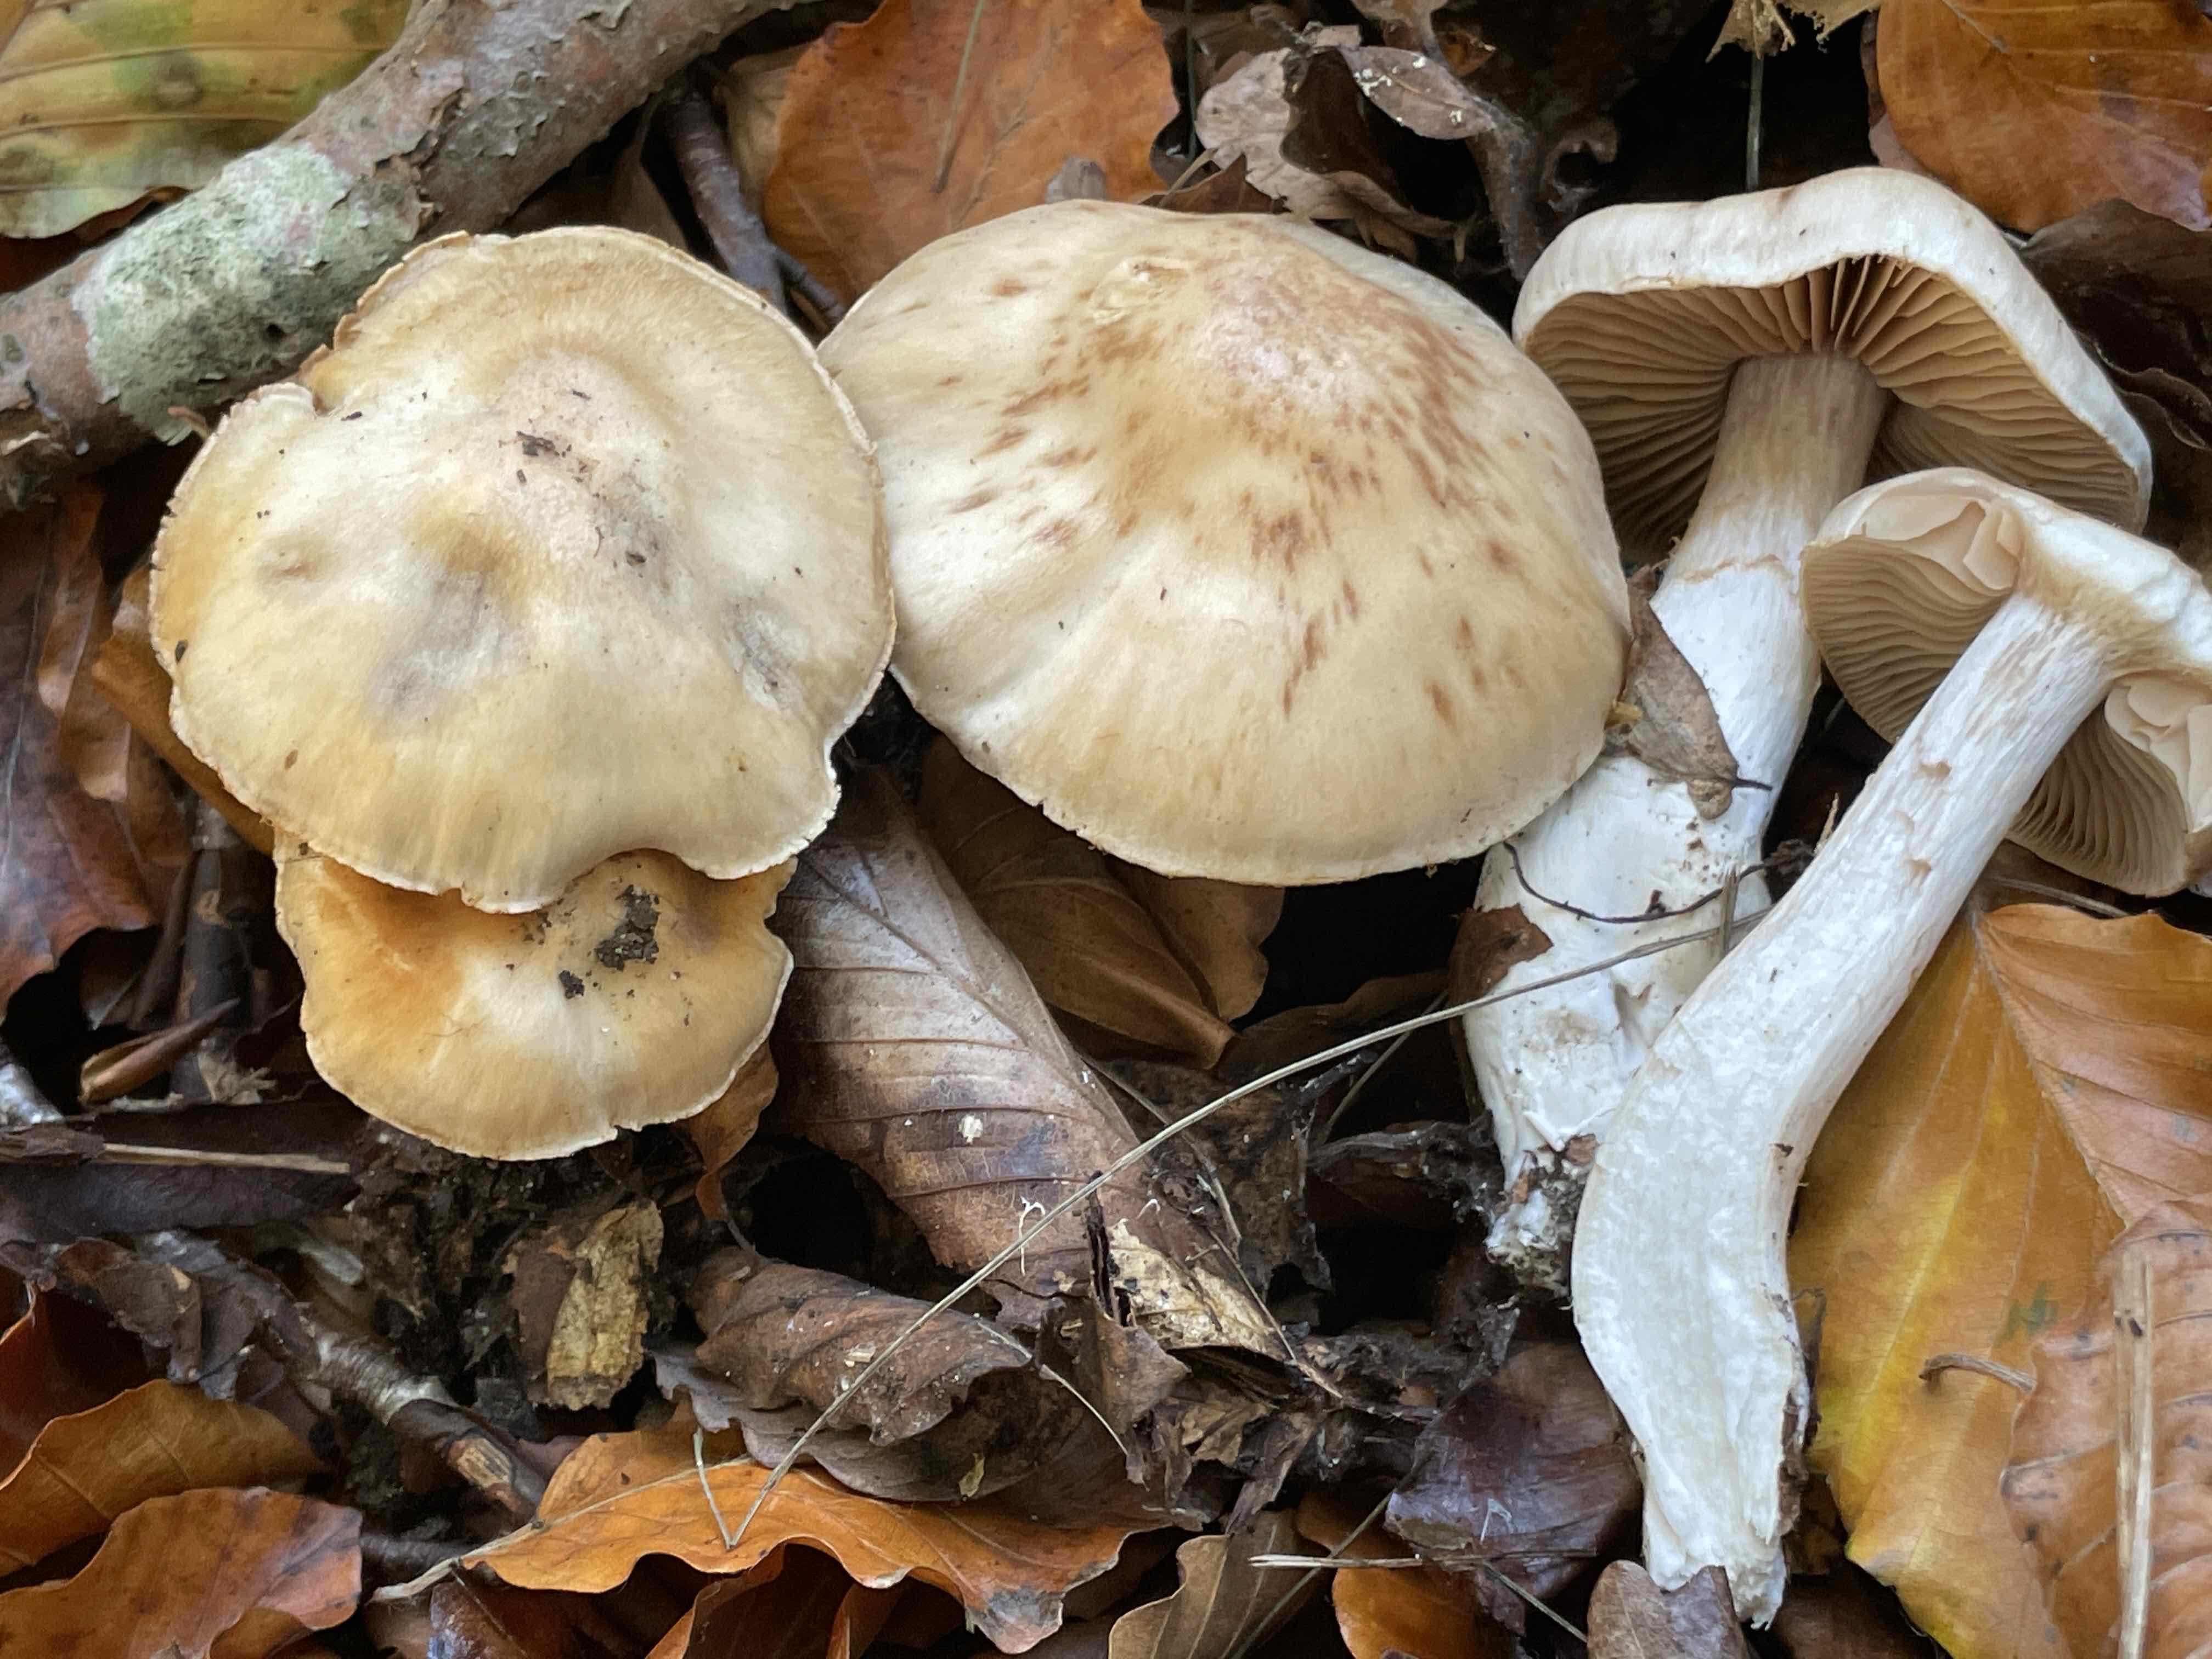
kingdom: Fungi
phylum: Basidiomycota
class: Agaricomycetes
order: Agaricales
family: Cortinariaceae
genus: Cortinarius
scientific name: Cortinarius turgidus
